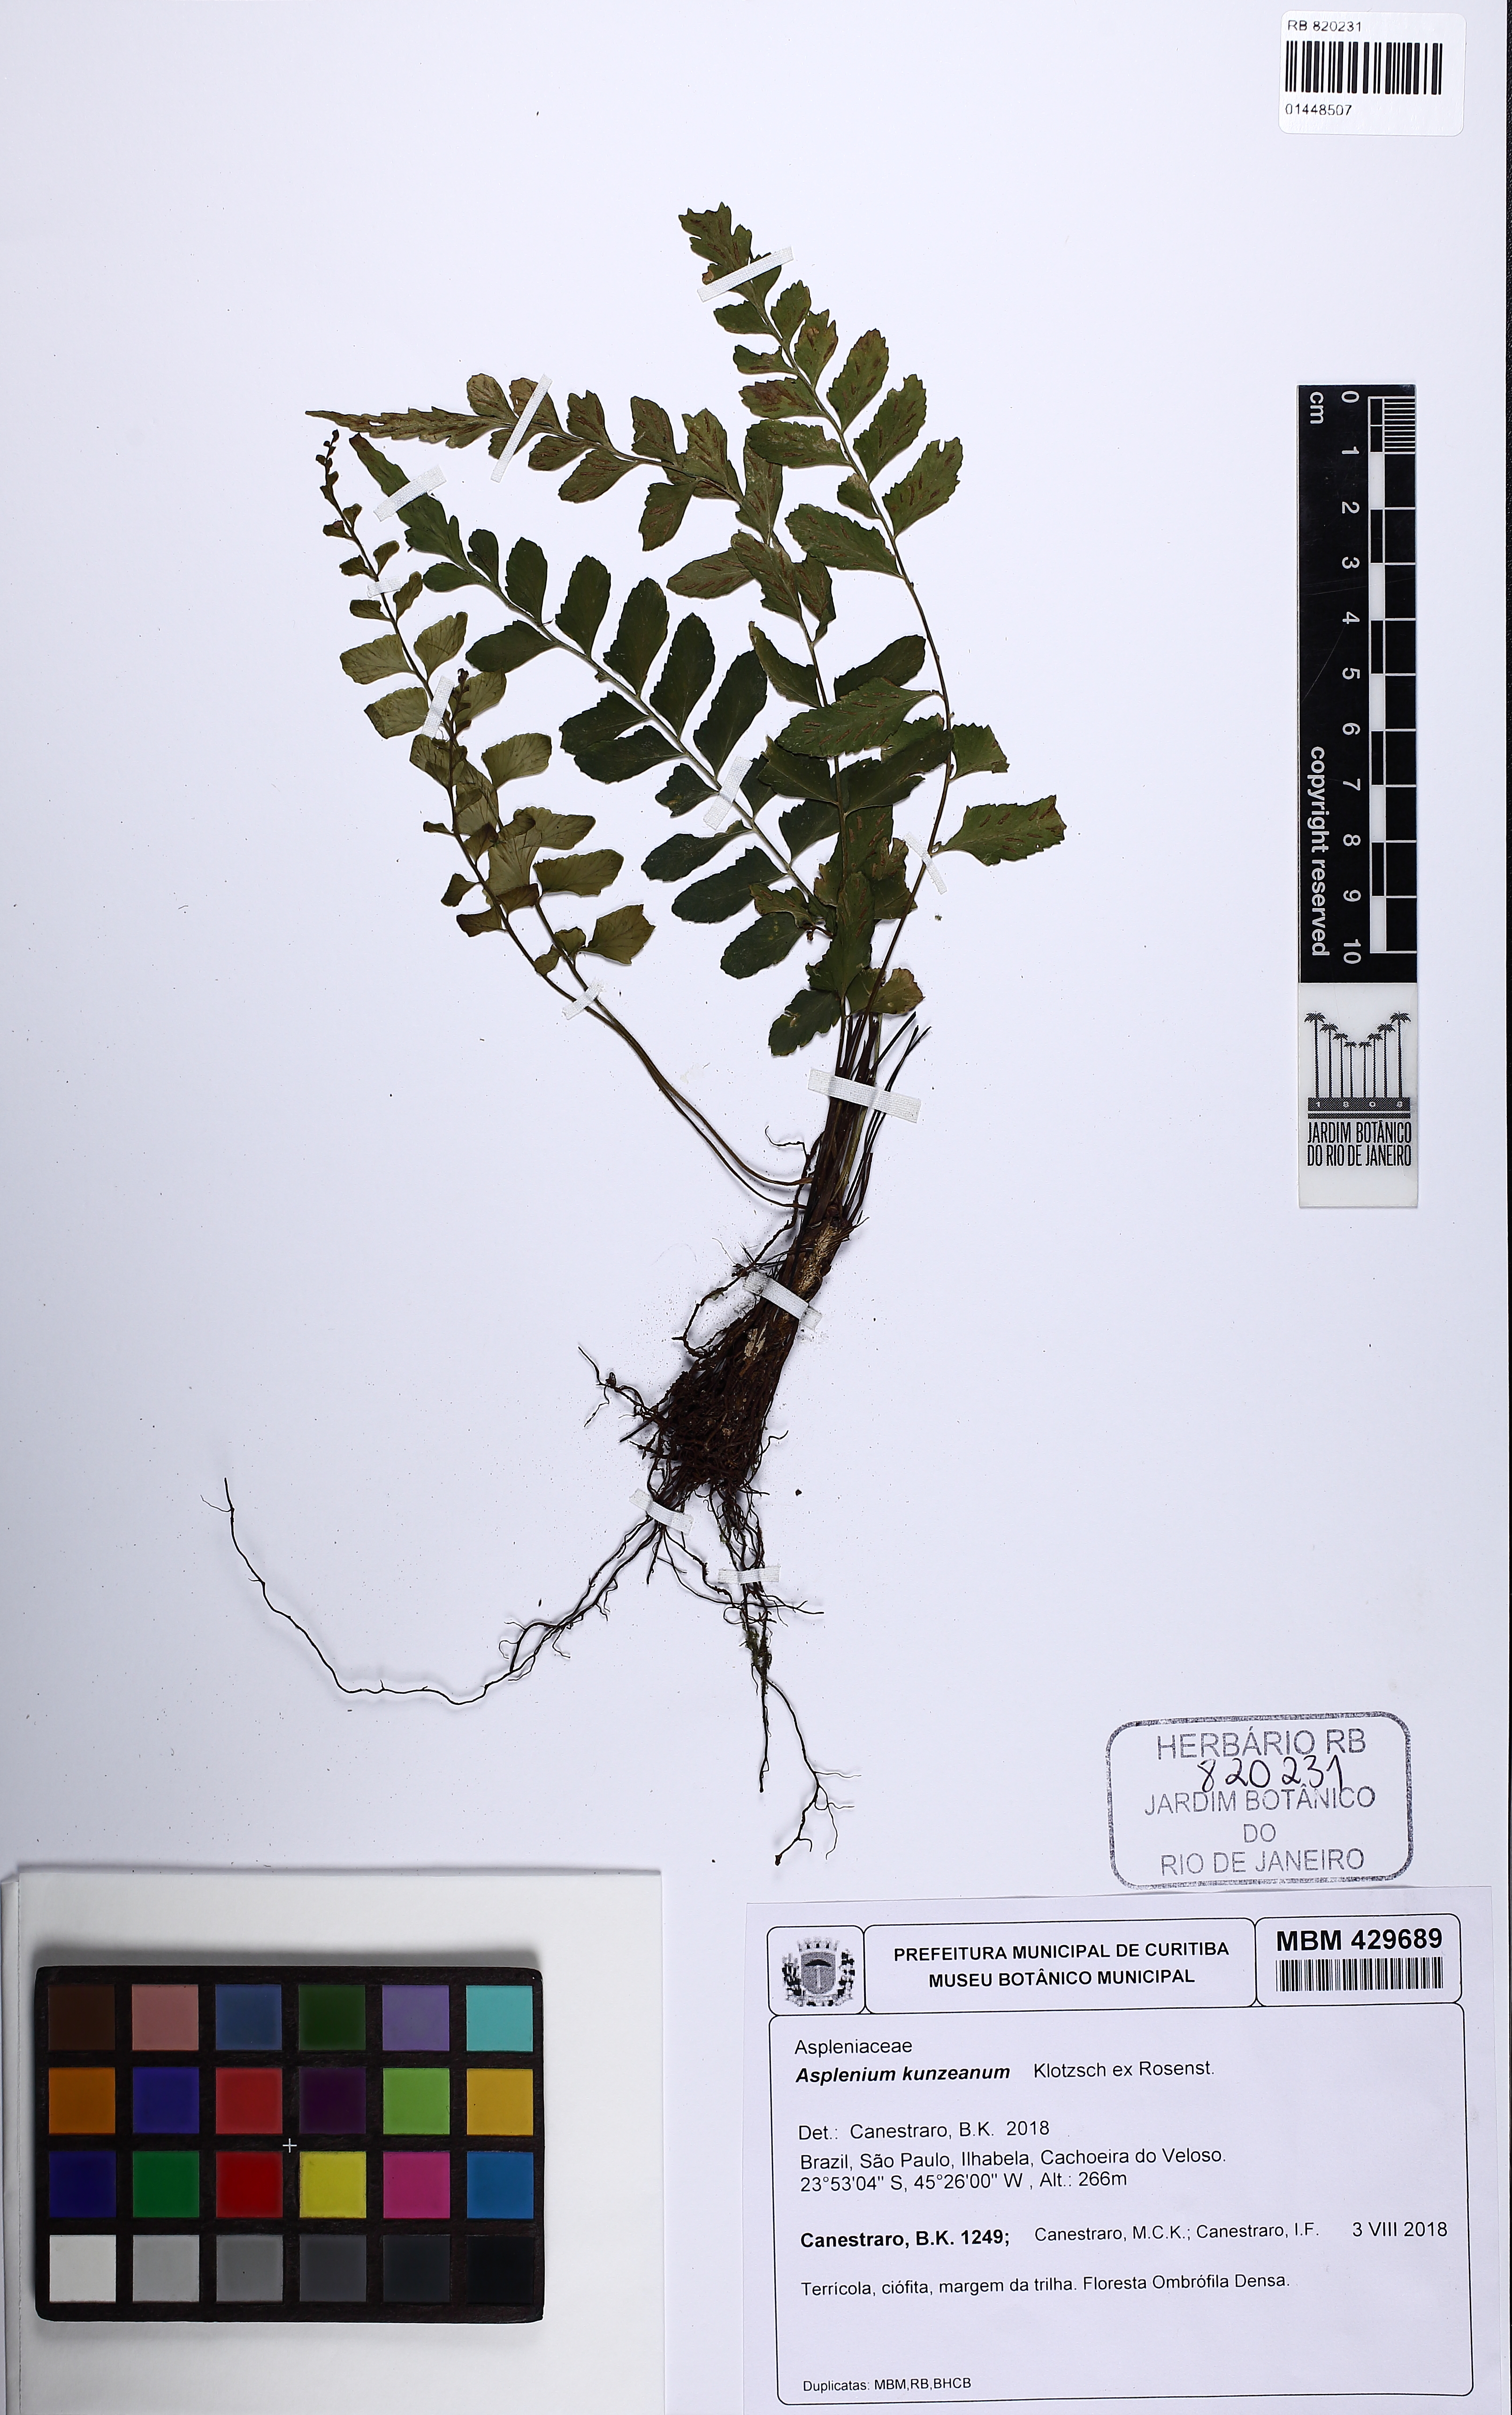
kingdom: Plantae
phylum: Tracheophyta
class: Polypodiopsida
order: Polypodiales
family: Aspleniaceae
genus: Asplenium
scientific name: Asplenium kunzeanum
